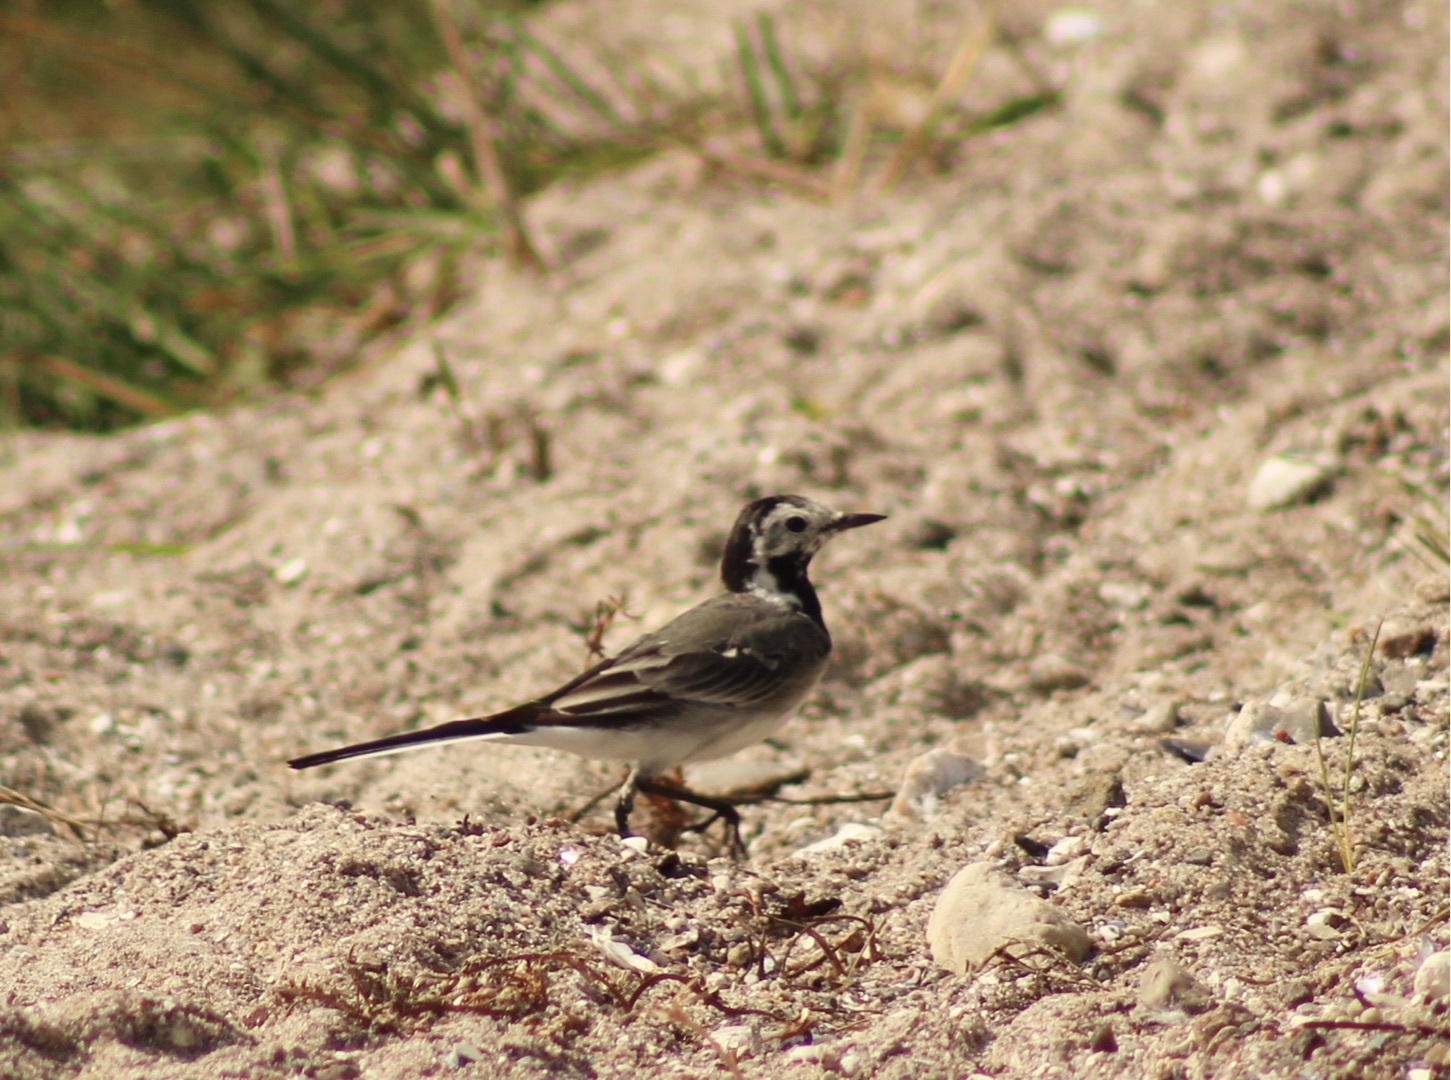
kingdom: Animalia
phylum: Chordata
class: Aves
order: Passeriformes
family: Motacillidae
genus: Motacilla
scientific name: Motacilla alba
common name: Hvid vipstjert
